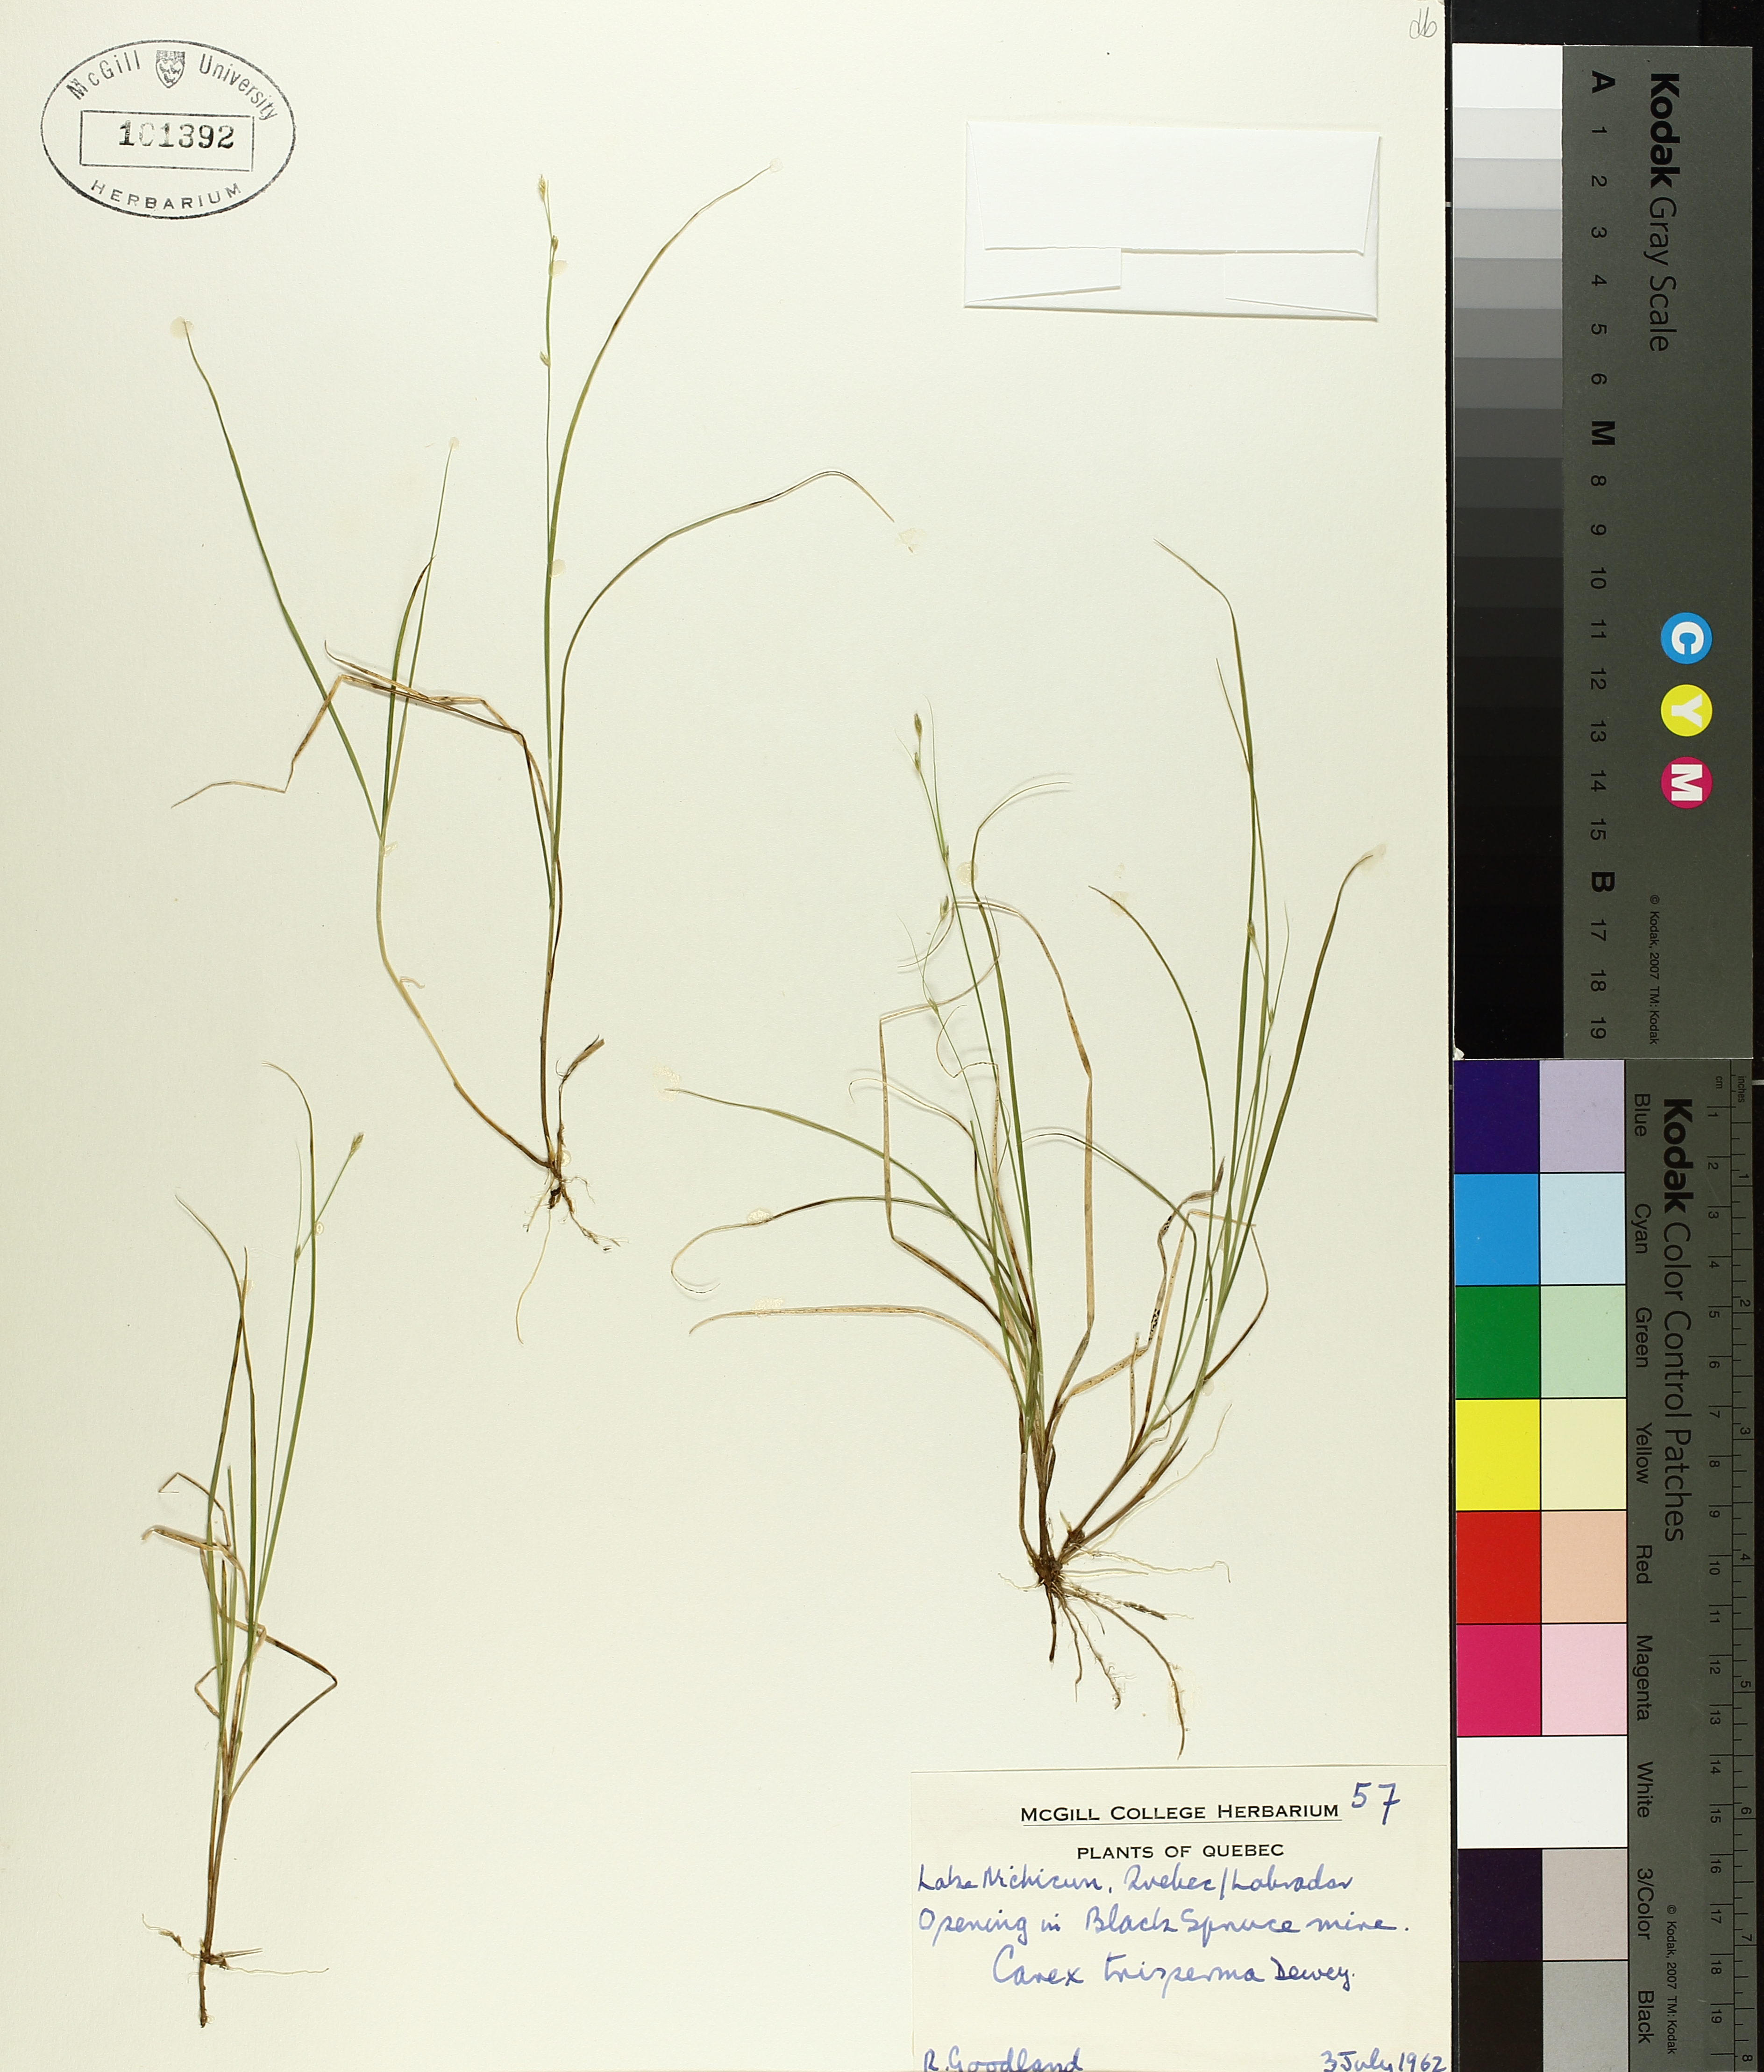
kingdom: Plantae
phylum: Tracheophyta
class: Liliopsida
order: Poales
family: Cyperaceae
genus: Carex
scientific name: Carex trisperma
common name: Three-seeded sedge
